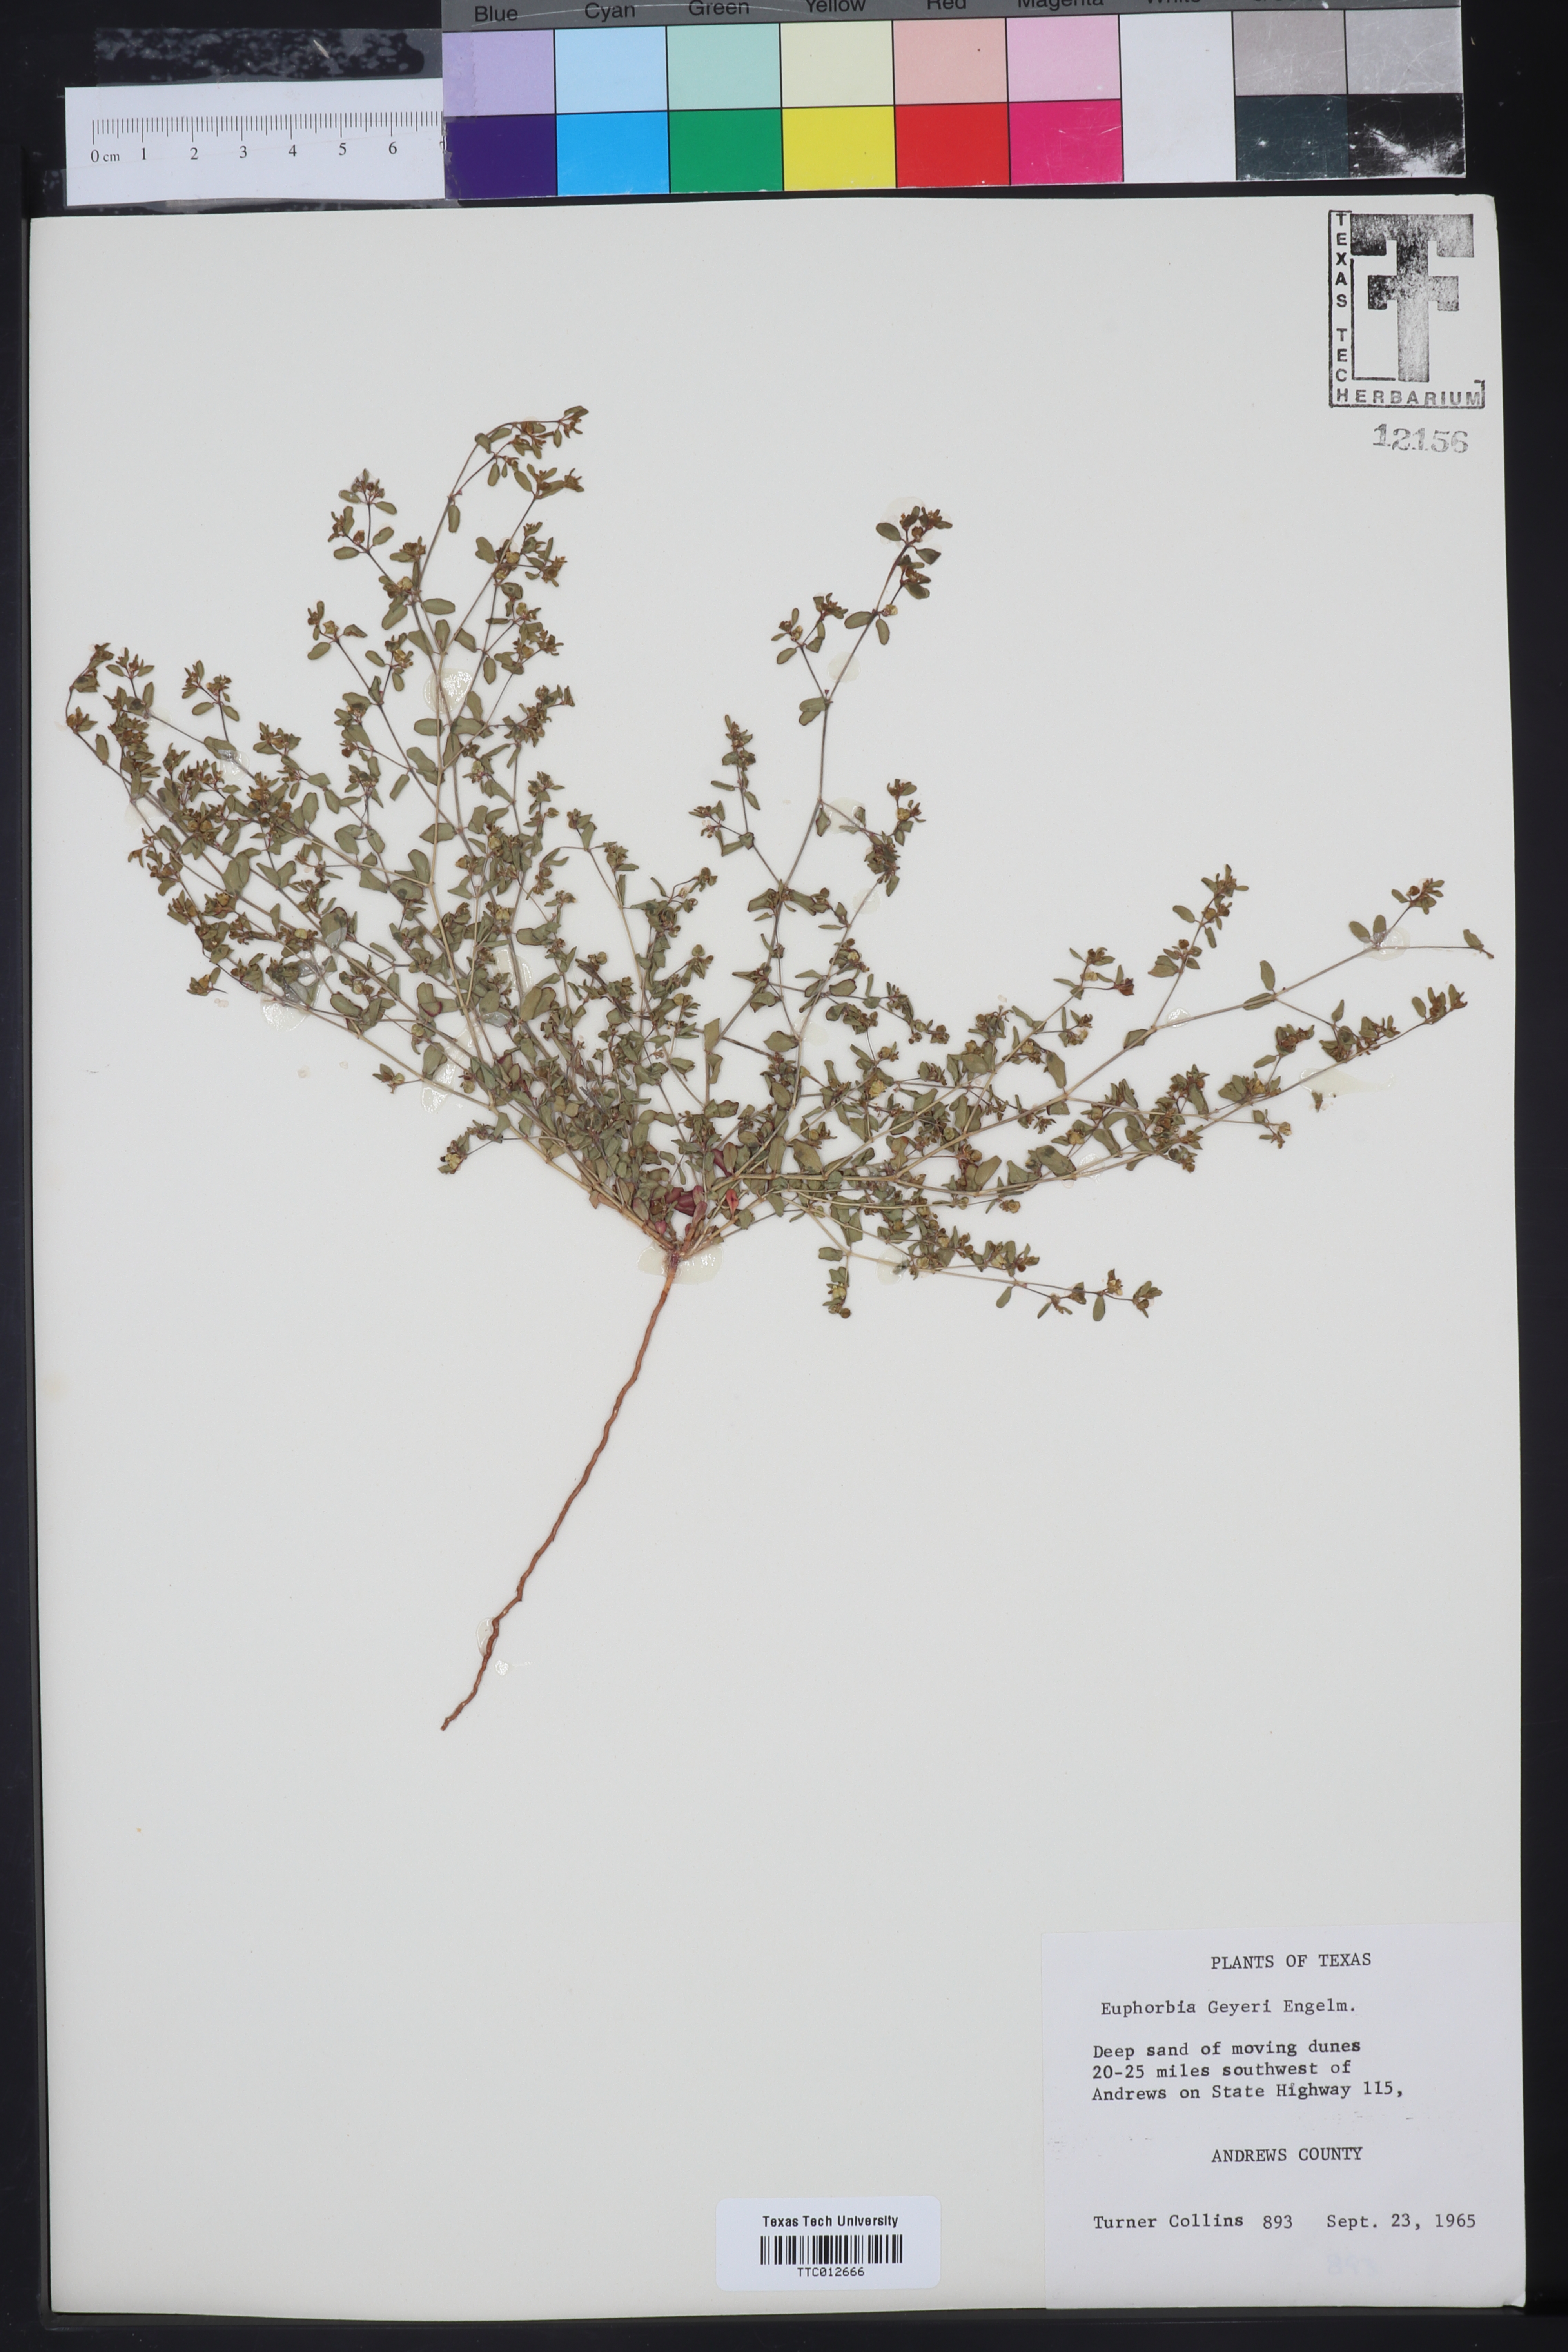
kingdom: Plantae
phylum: Tracheophyta
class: Magnoliopsida
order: Malpighiales
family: Euphorbiaceae
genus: Euphorbia
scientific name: Euphorbia geyeri
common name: Geyer's spurge
